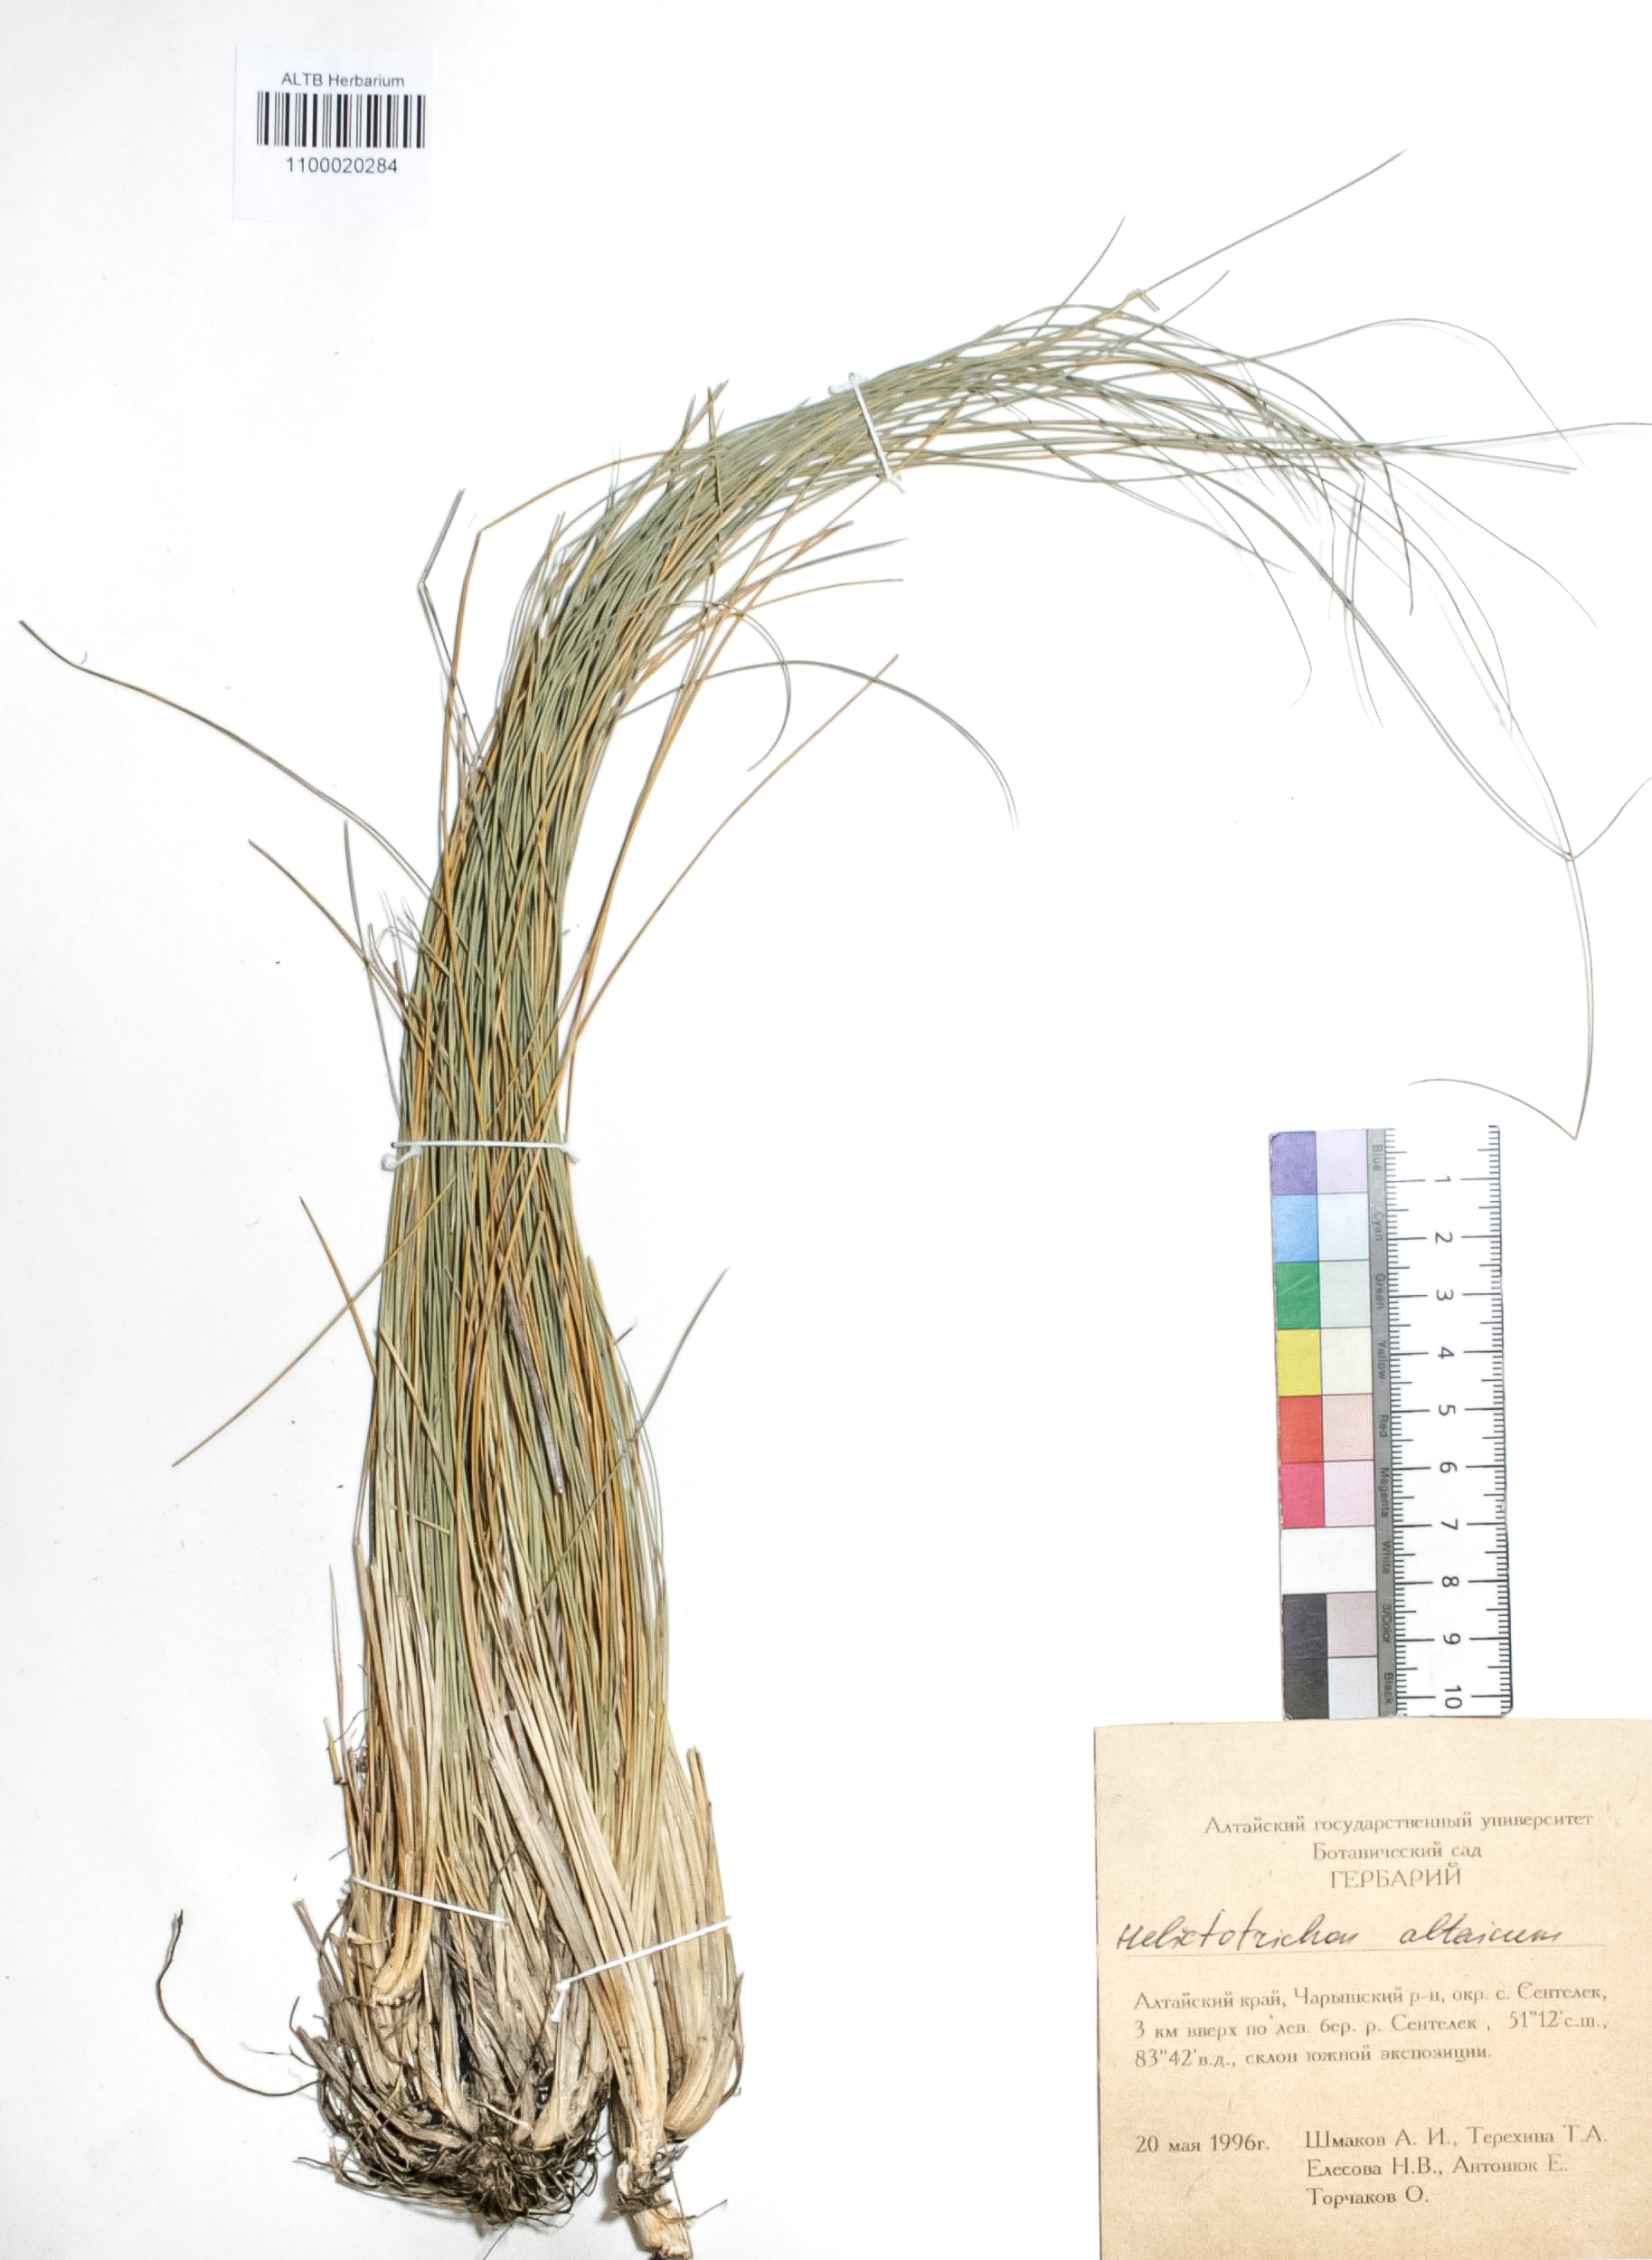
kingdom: Plantae
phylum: Tracheophyta
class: Liliopsida
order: Poales
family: Poaceae
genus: Helictotrichon
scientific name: Helictotrichon desertorum
